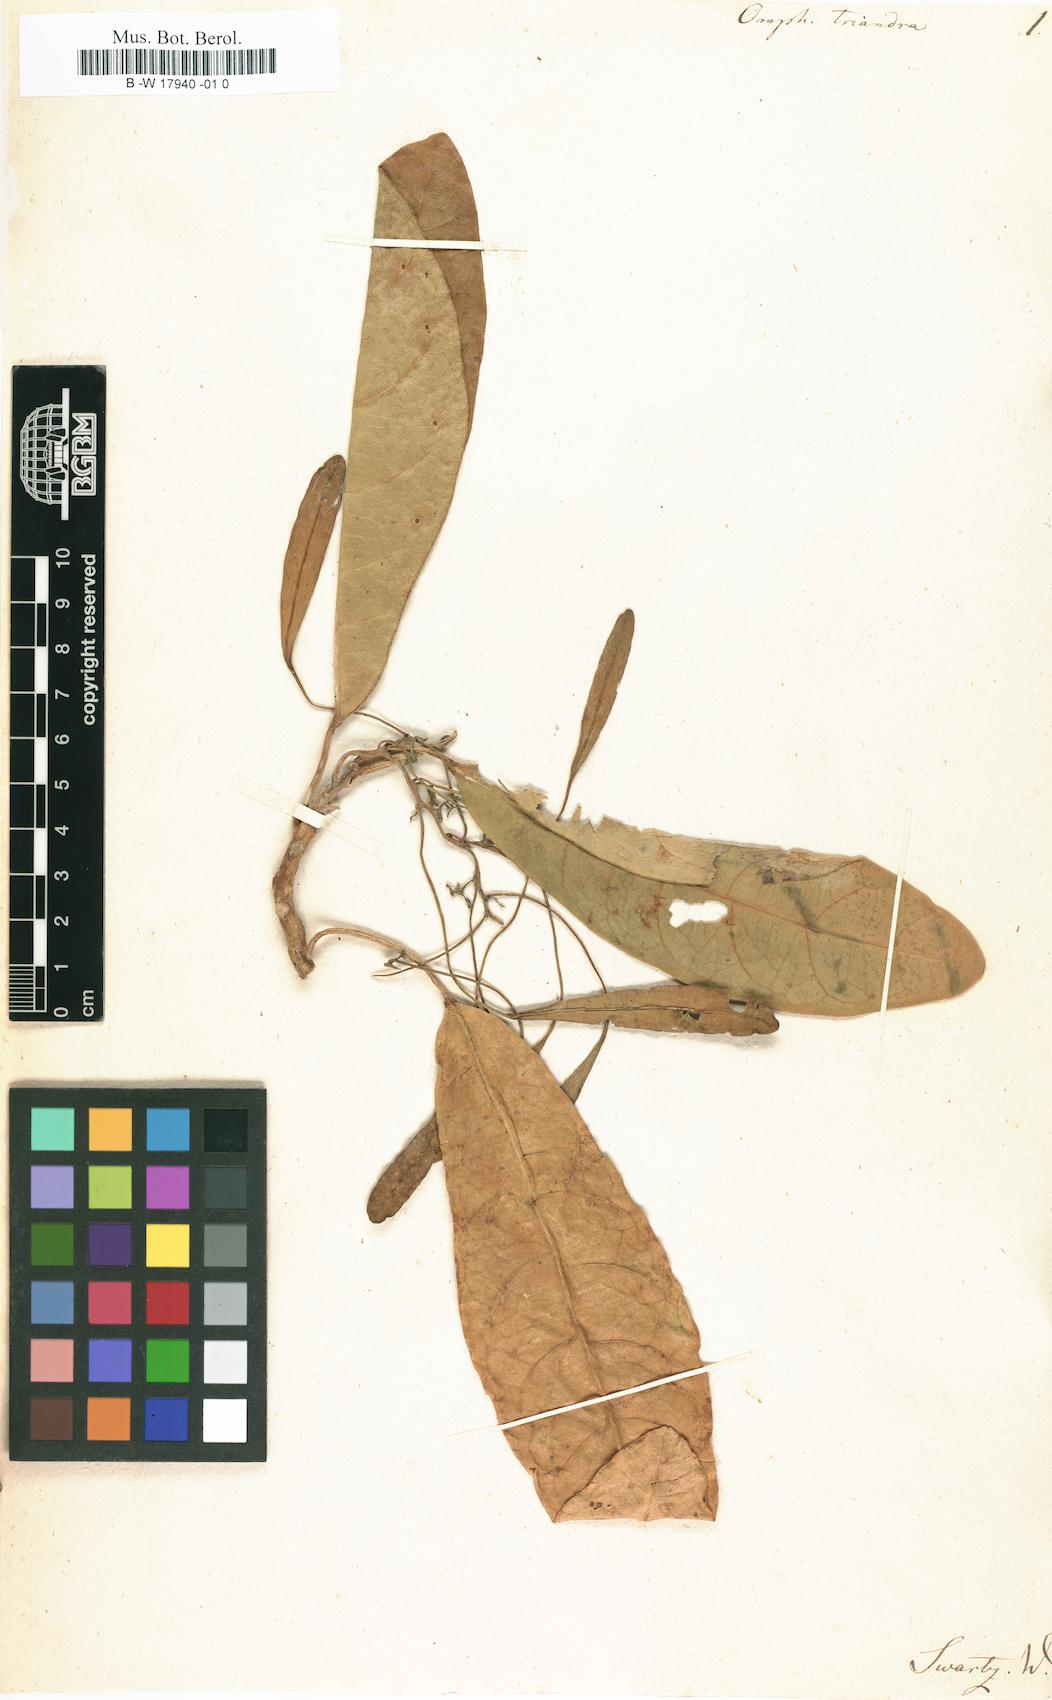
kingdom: Plantae
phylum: Tracheophyta
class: Magnoliopsida
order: Malpighiales
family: Euphorbiaceae
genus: Omphalea
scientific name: Omphalea triandra
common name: Jamaican cobnut
